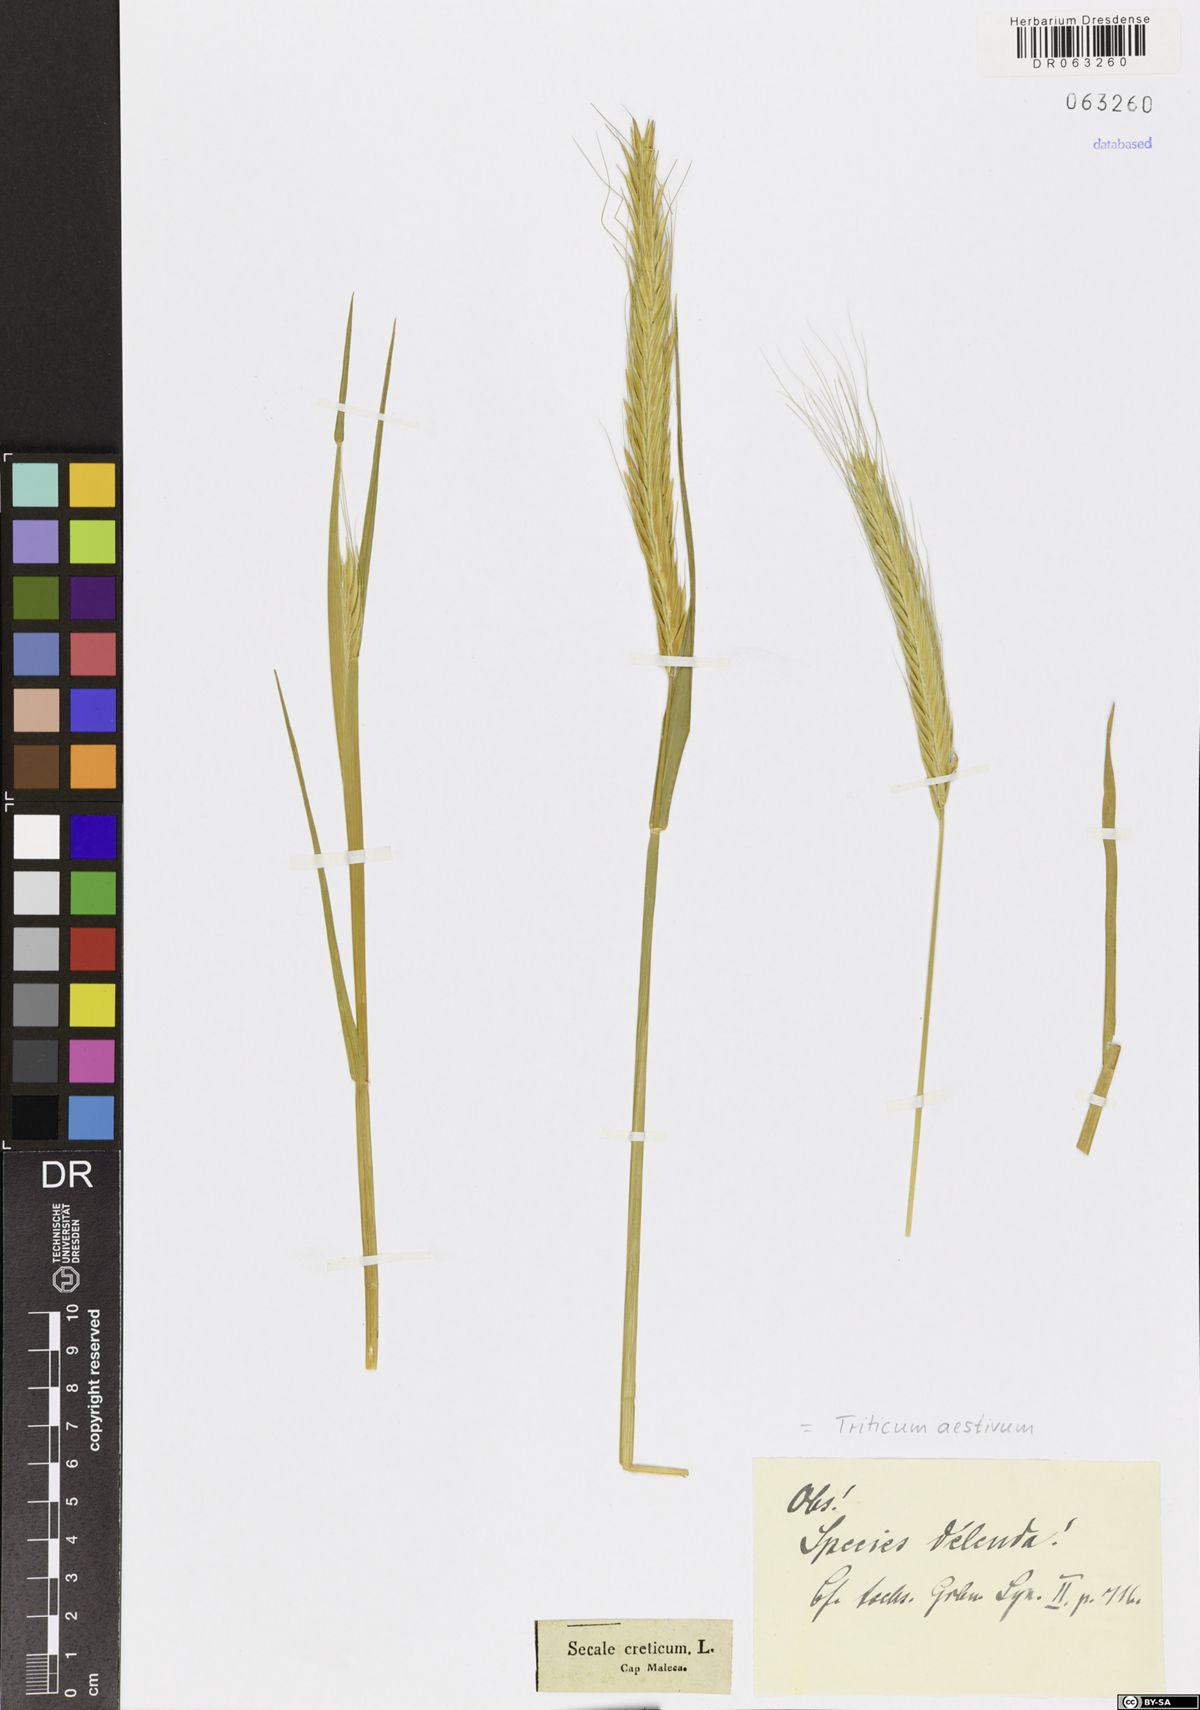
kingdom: Plantae
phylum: Tracheophyta
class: Liliopsida
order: Poales
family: Poaceae
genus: Triticum
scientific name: Triticum aestivum
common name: Common wheat
